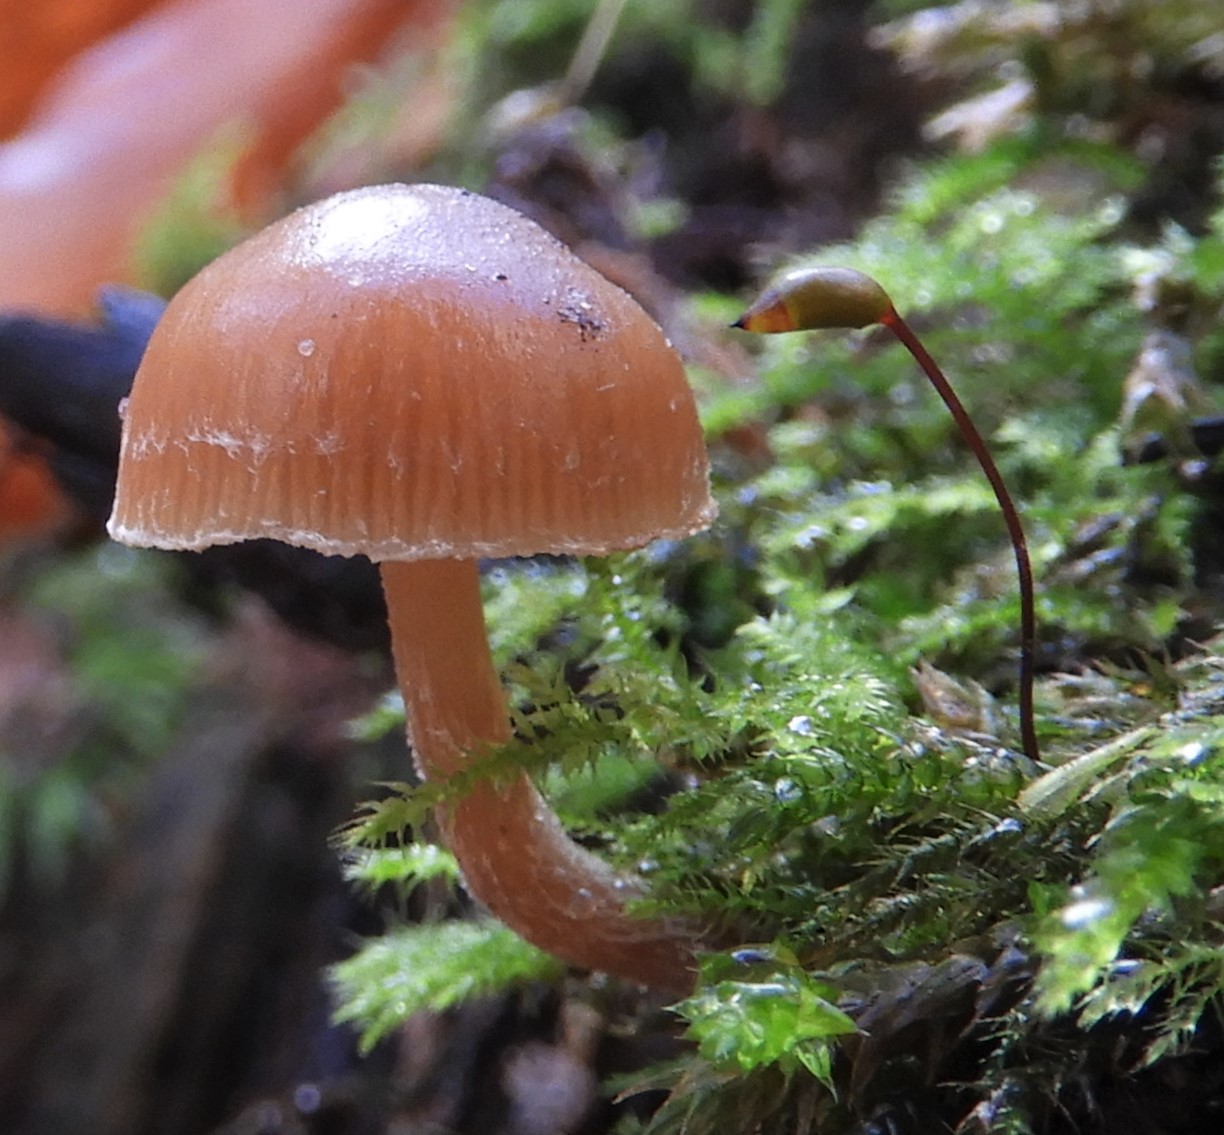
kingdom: Fungi
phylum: Basidiomycota
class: Agaricomycetes
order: Agaricales
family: Tubariaceae
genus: Tubaria
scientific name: Tubaria furfuracea
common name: kliddet fnughat
